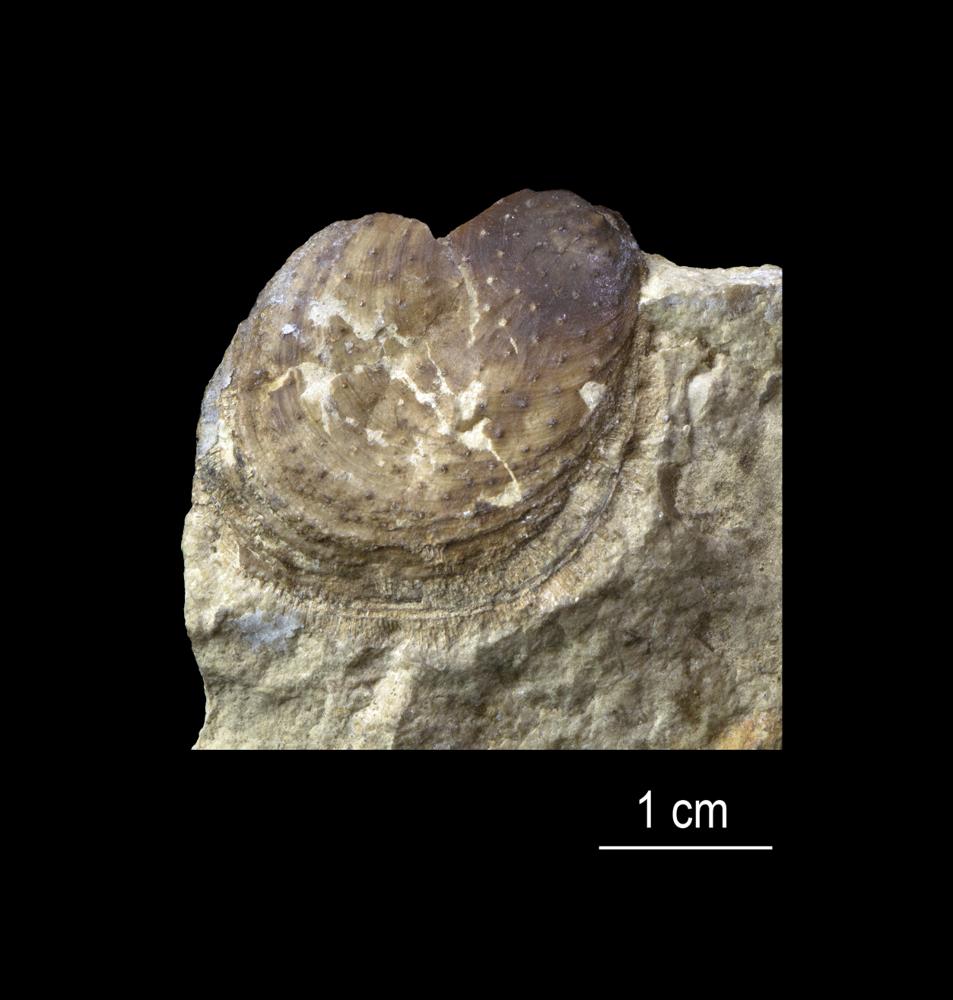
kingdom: Animalia
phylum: Brachiopoda
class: Lingulata
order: Siphonotretida
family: Siphonotretidae
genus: Siphonotreta
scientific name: Siphonotreta
